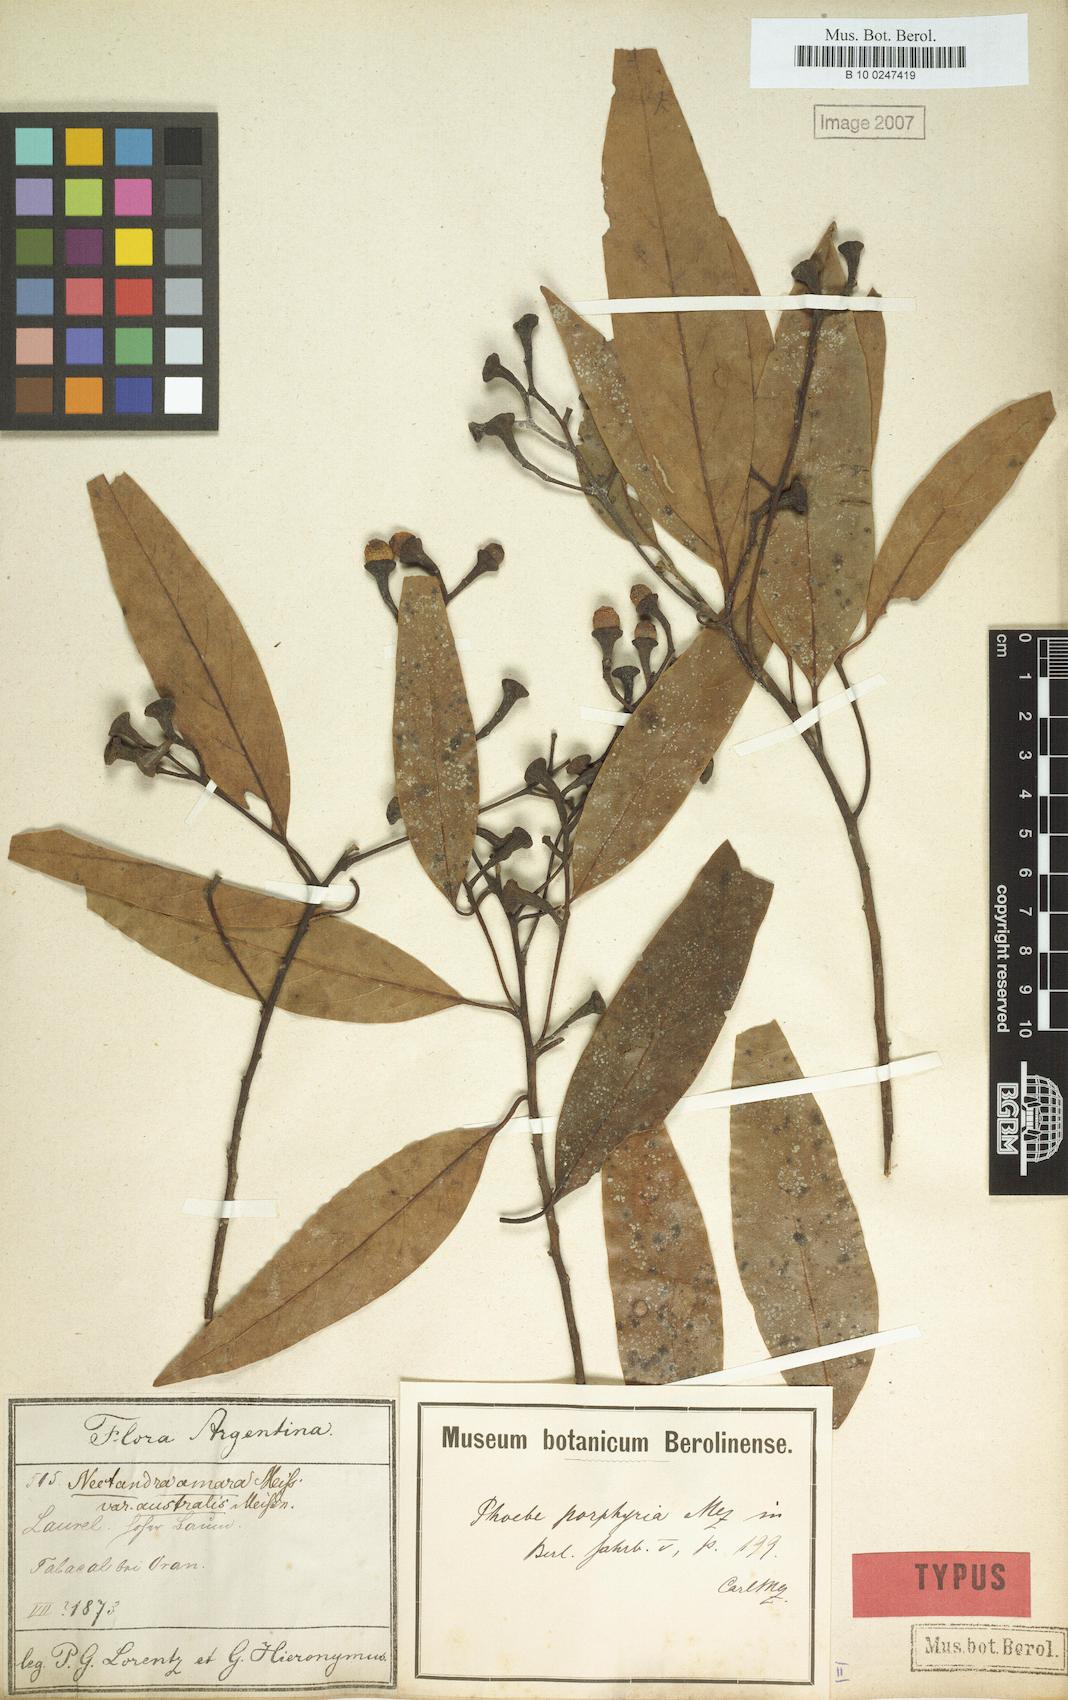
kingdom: Plantae
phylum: Tracheophyta
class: Magnoliopsida
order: Laurales
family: Lauraceae
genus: Ocotea
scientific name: Ocotea porphyria
